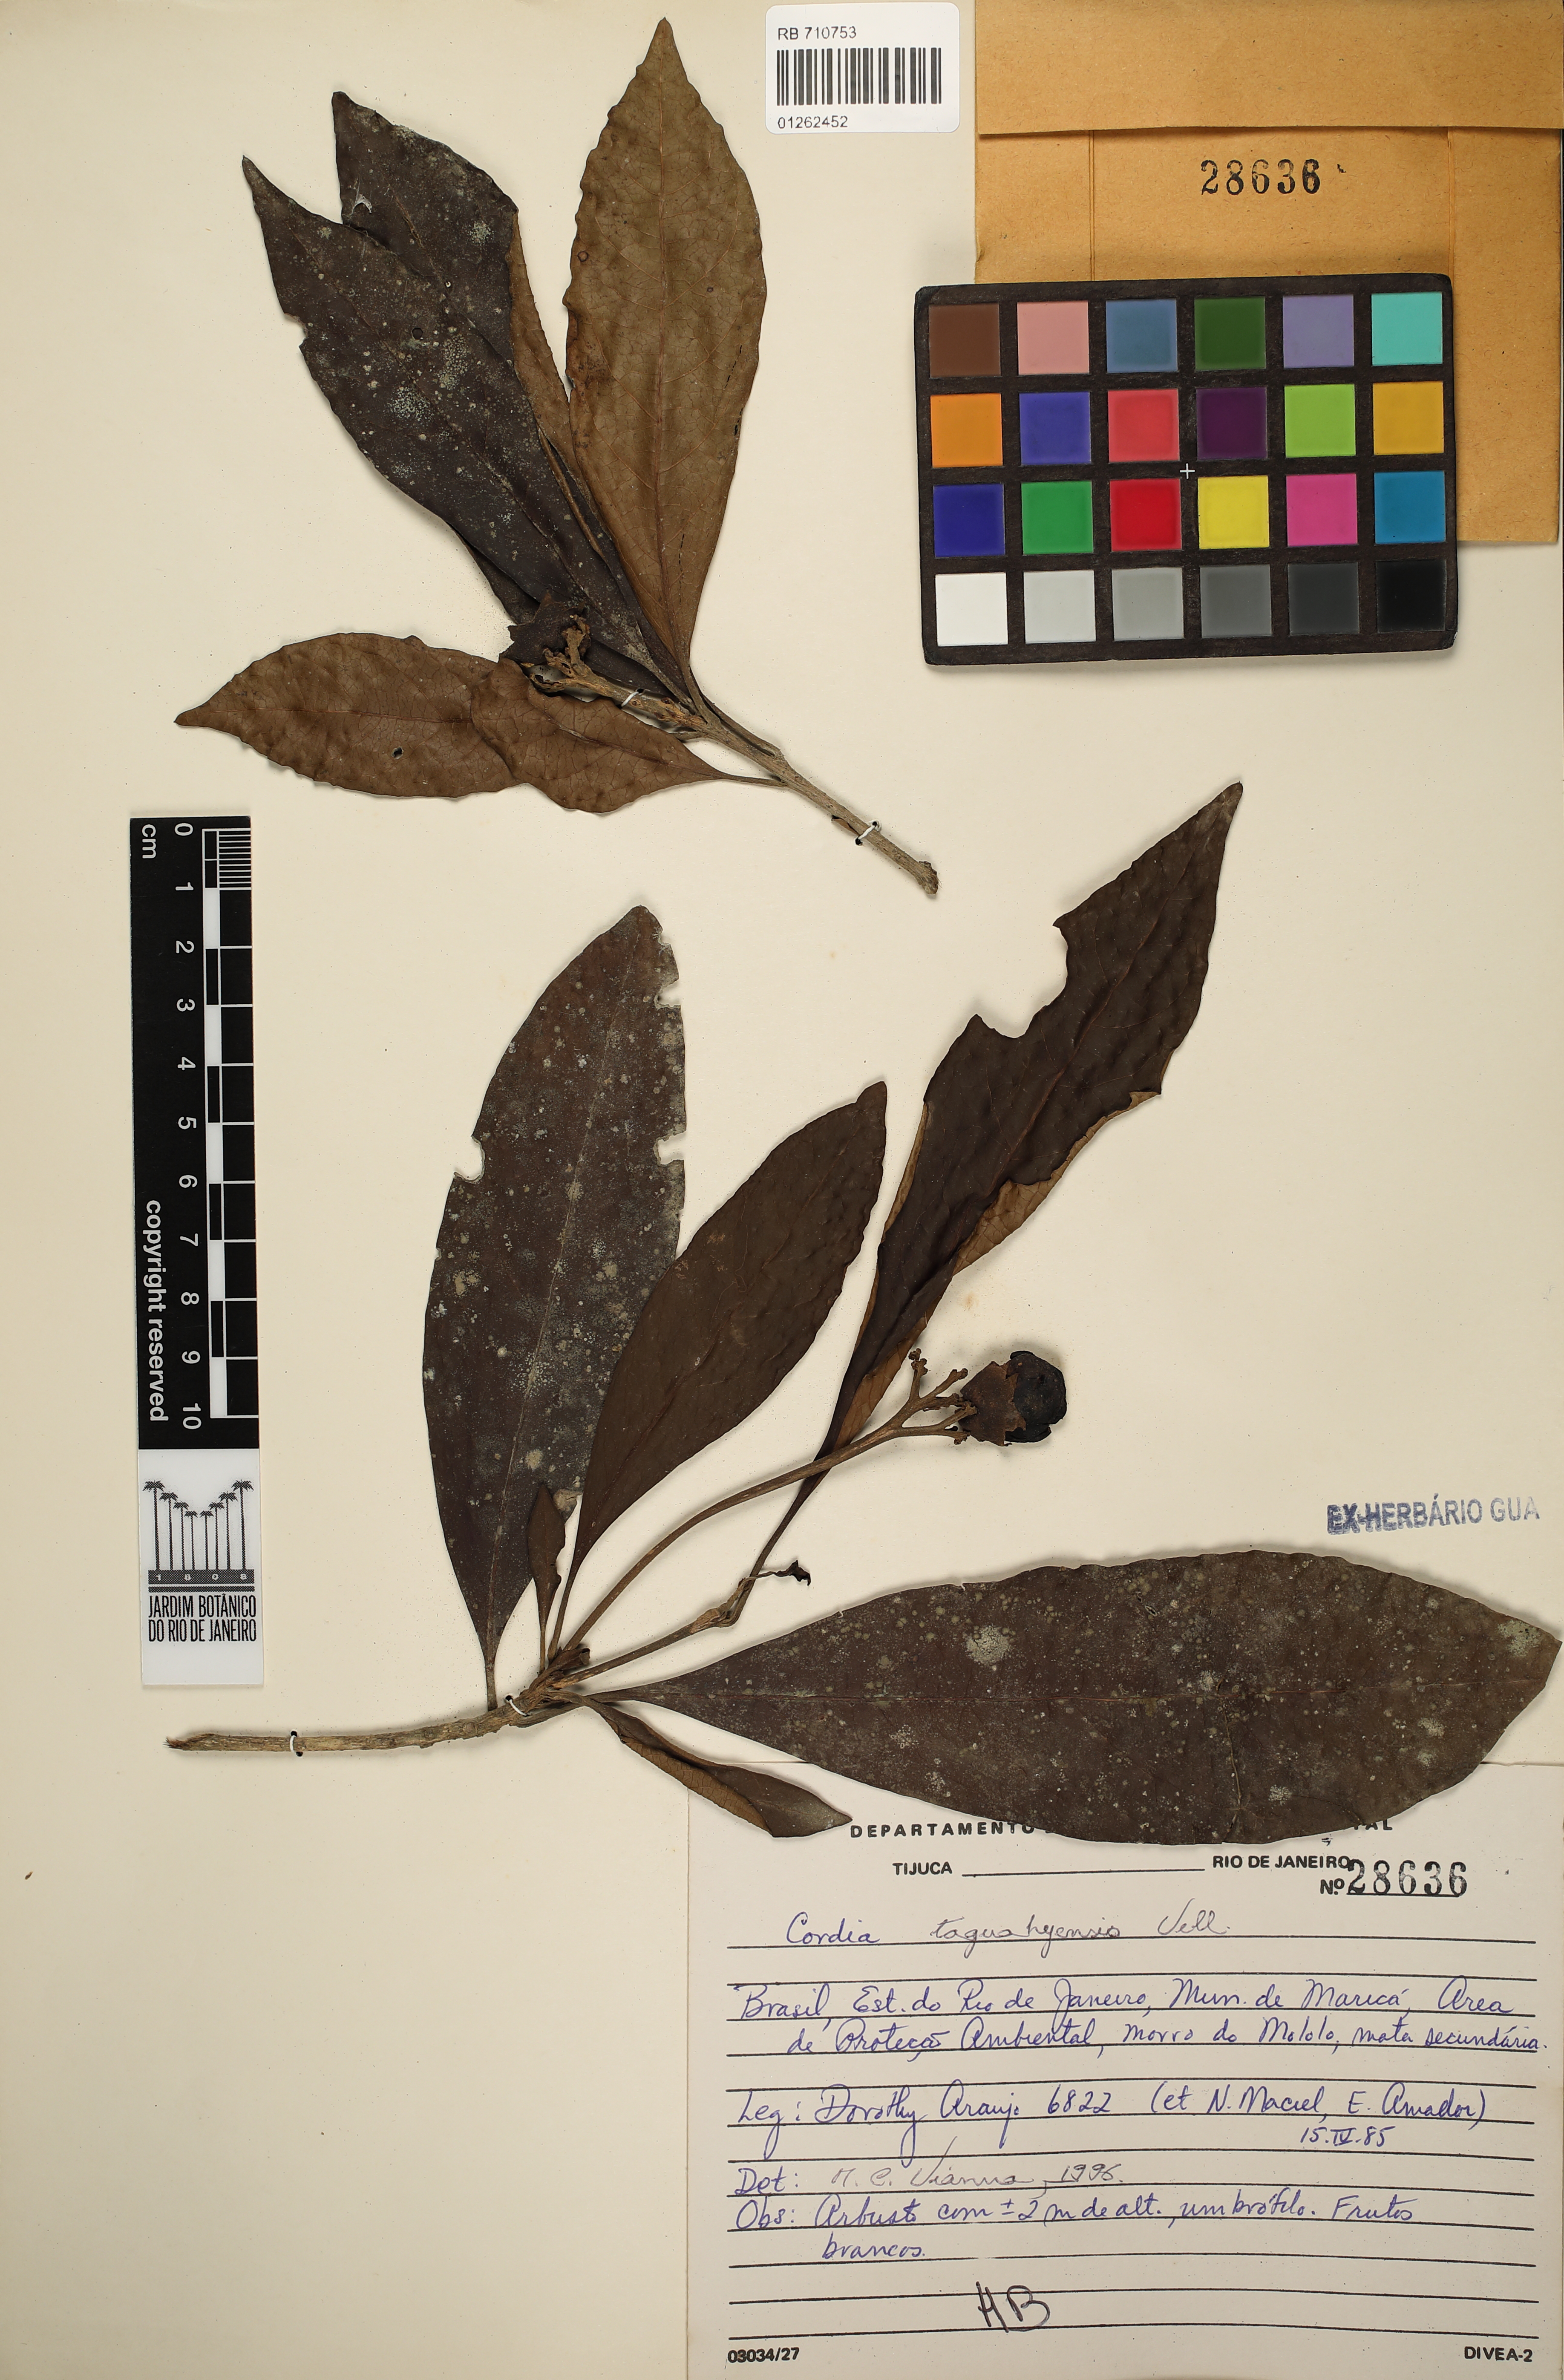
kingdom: Plantae
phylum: Tracheophyta
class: Magnoliopsida
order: Boraginales
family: Cordiaceae
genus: Cordia
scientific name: Cordia taguahuyensis
